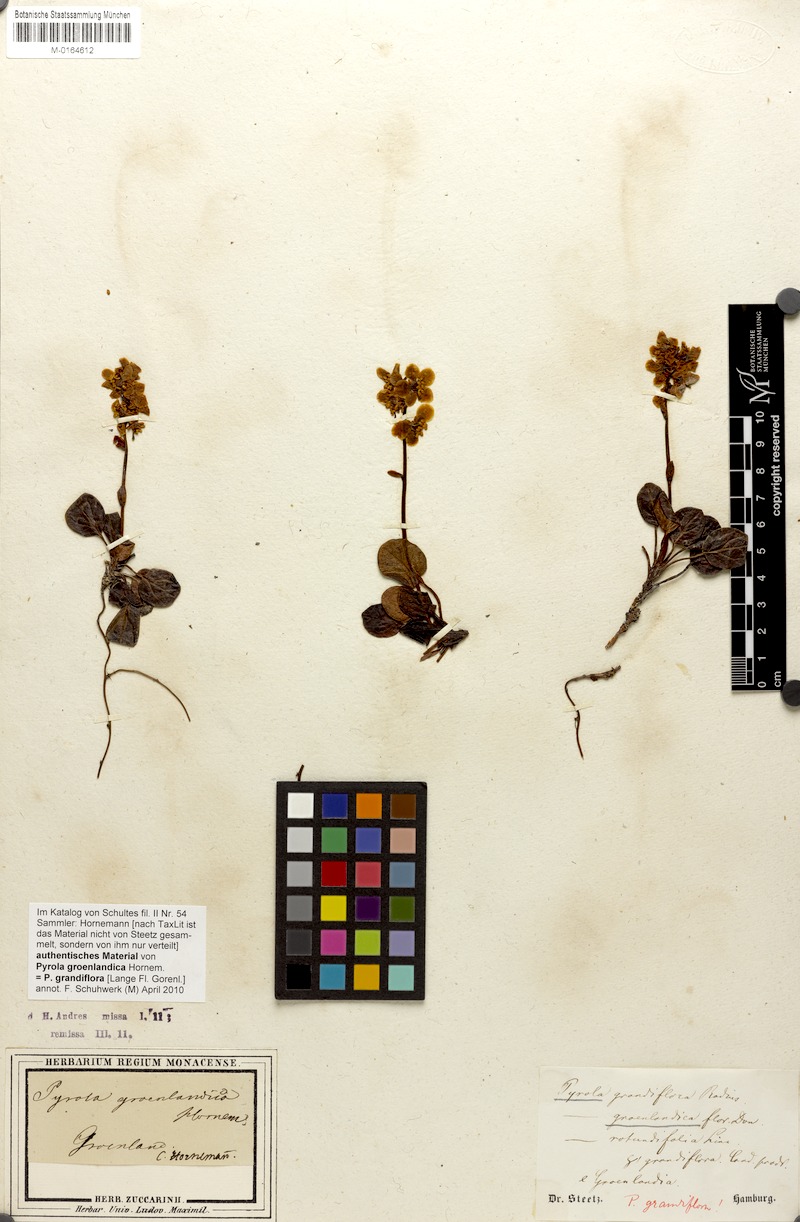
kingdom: Plantae
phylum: Tracheophyta
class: Magnoliopsida
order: Ericales
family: Ericaceae
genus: Pyrola
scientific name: Pyrola rotundifolia
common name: Round-leaved wintergreen
